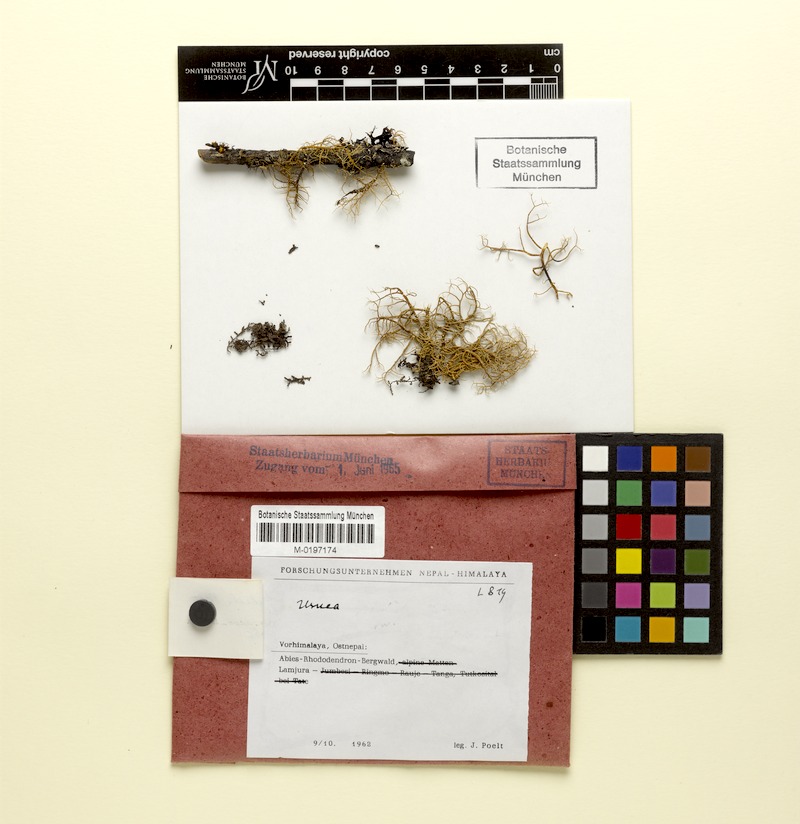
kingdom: Fungi
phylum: Ascomycota
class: Lecanoromycetes
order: Lecanorales
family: Parmeliaceae
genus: Usnea
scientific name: Usnea
